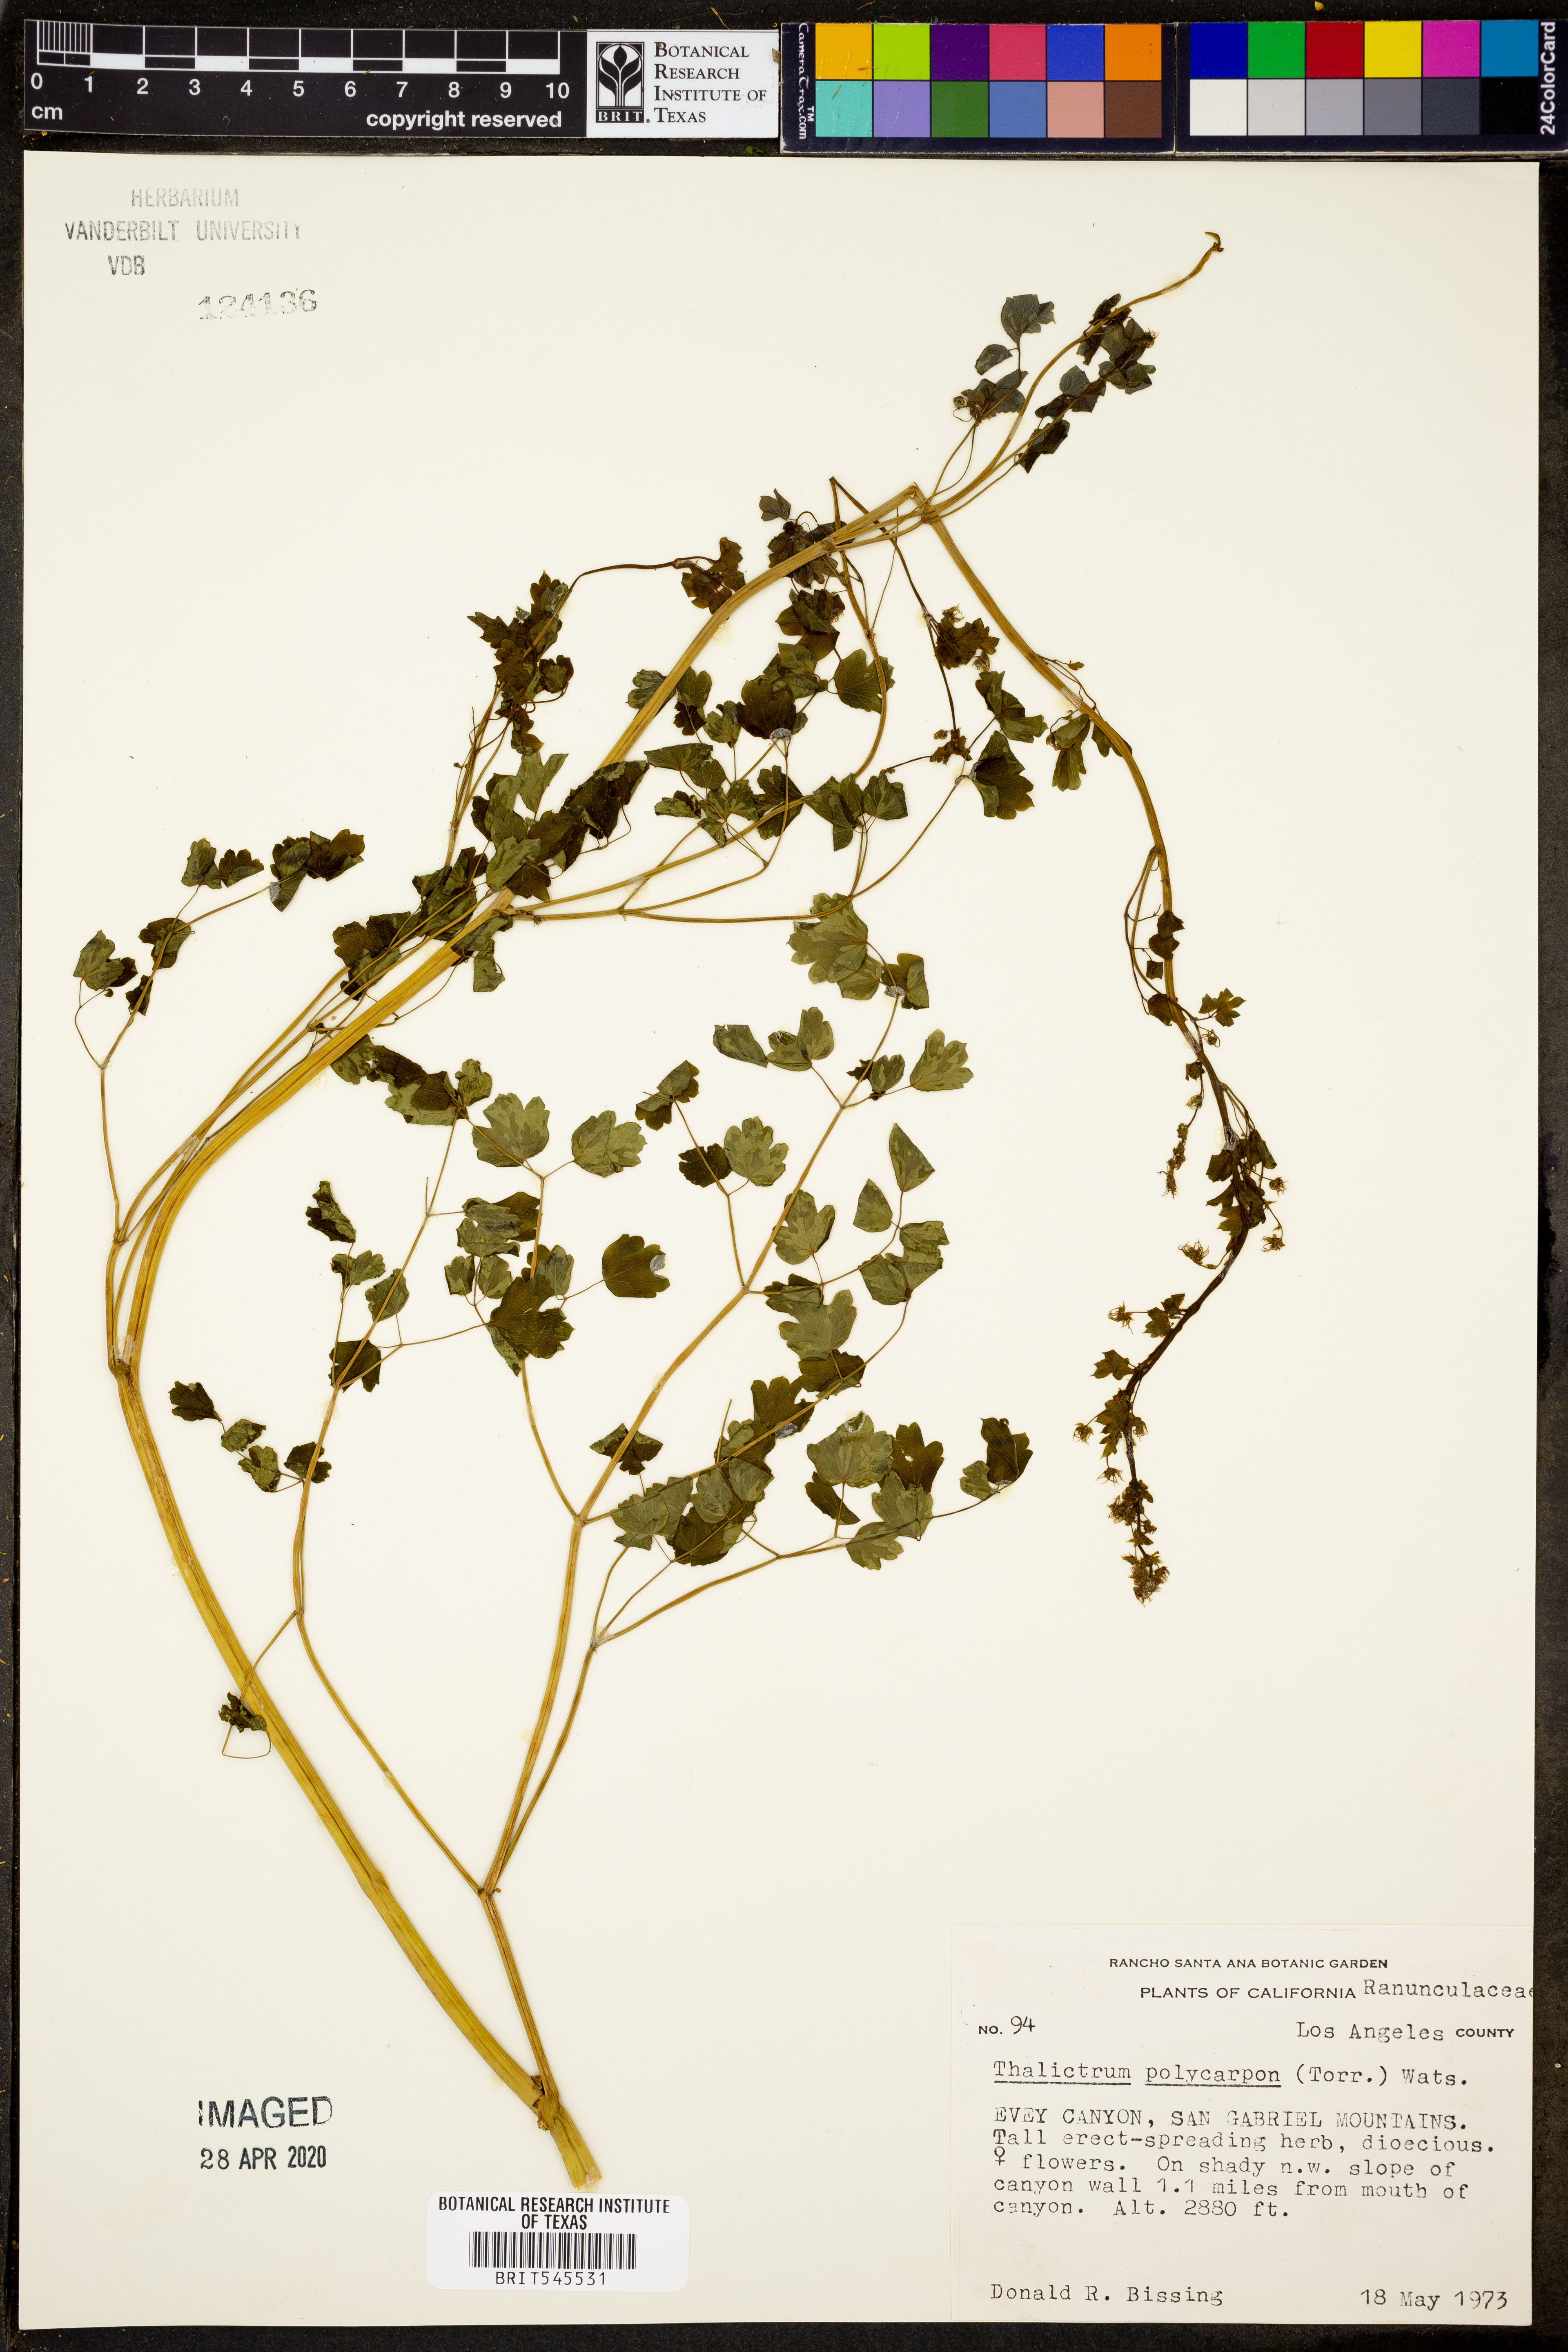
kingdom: Plantae
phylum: Tracheophyta
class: Magnoliopsida
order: Ranunculales
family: Ranunculaceae
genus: Thalictrum
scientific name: Thalictrum fendleri
